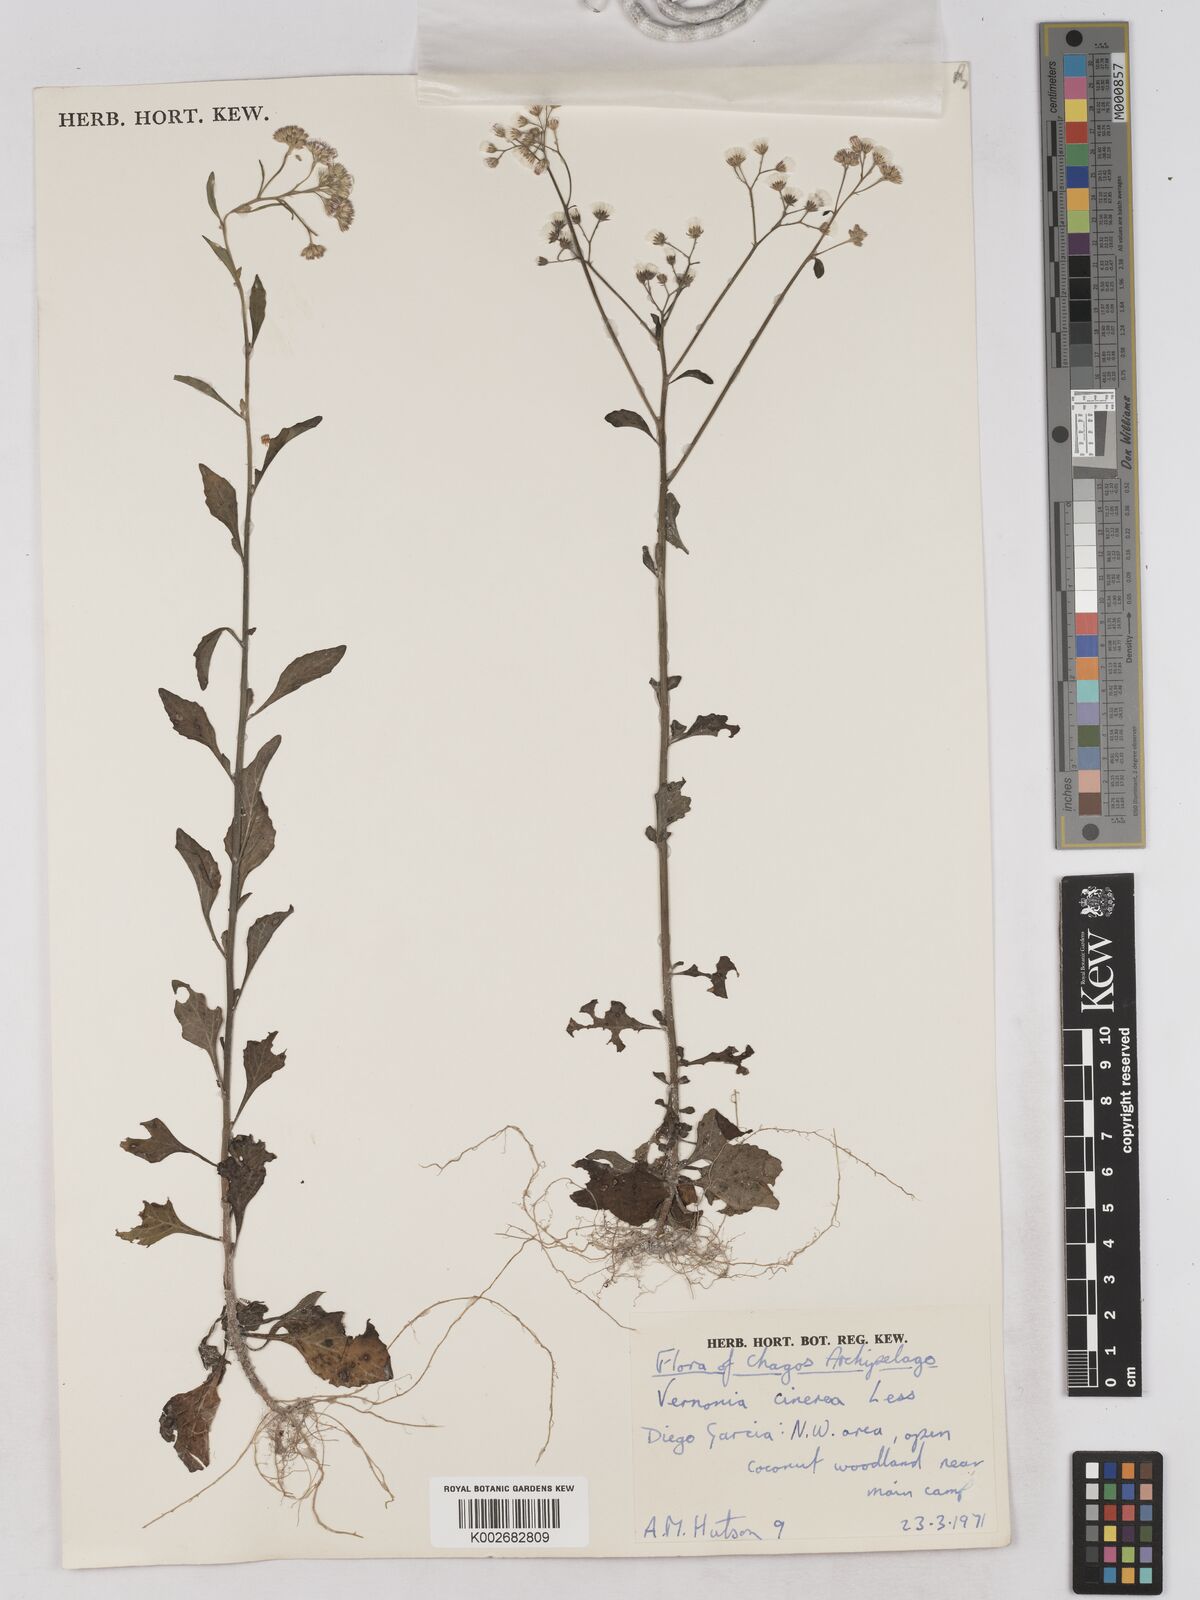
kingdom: Plantae
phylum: Tracheophyta
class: Magnoliopsida
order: Asterales
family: Asteraceae
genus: Cyanthillium
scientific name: Cyanthillium cinereum
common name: Little ironweed
